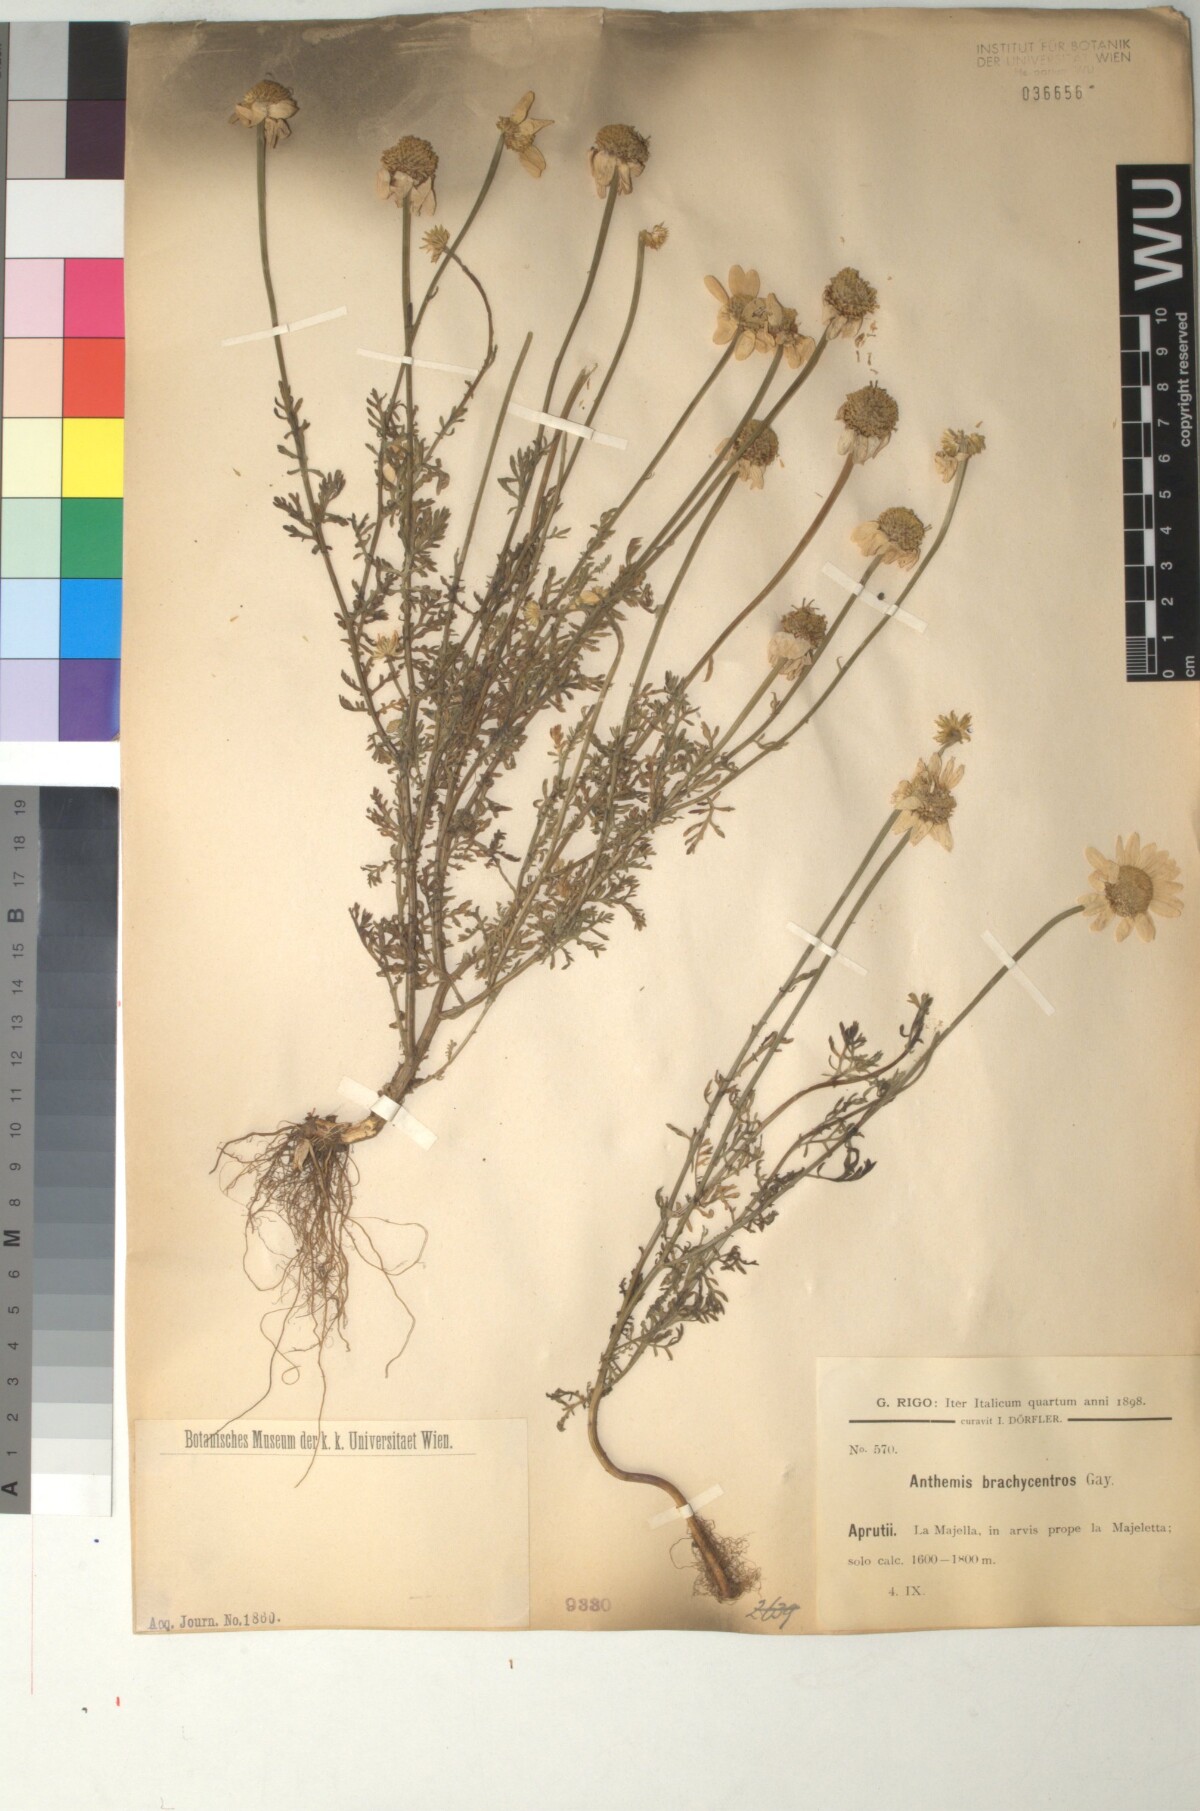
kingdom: Plantae
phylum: Tracheophyta
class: Magnoliopsida
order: Asterales
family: Asteraceae
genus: Cota
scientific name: Cota segetalis
